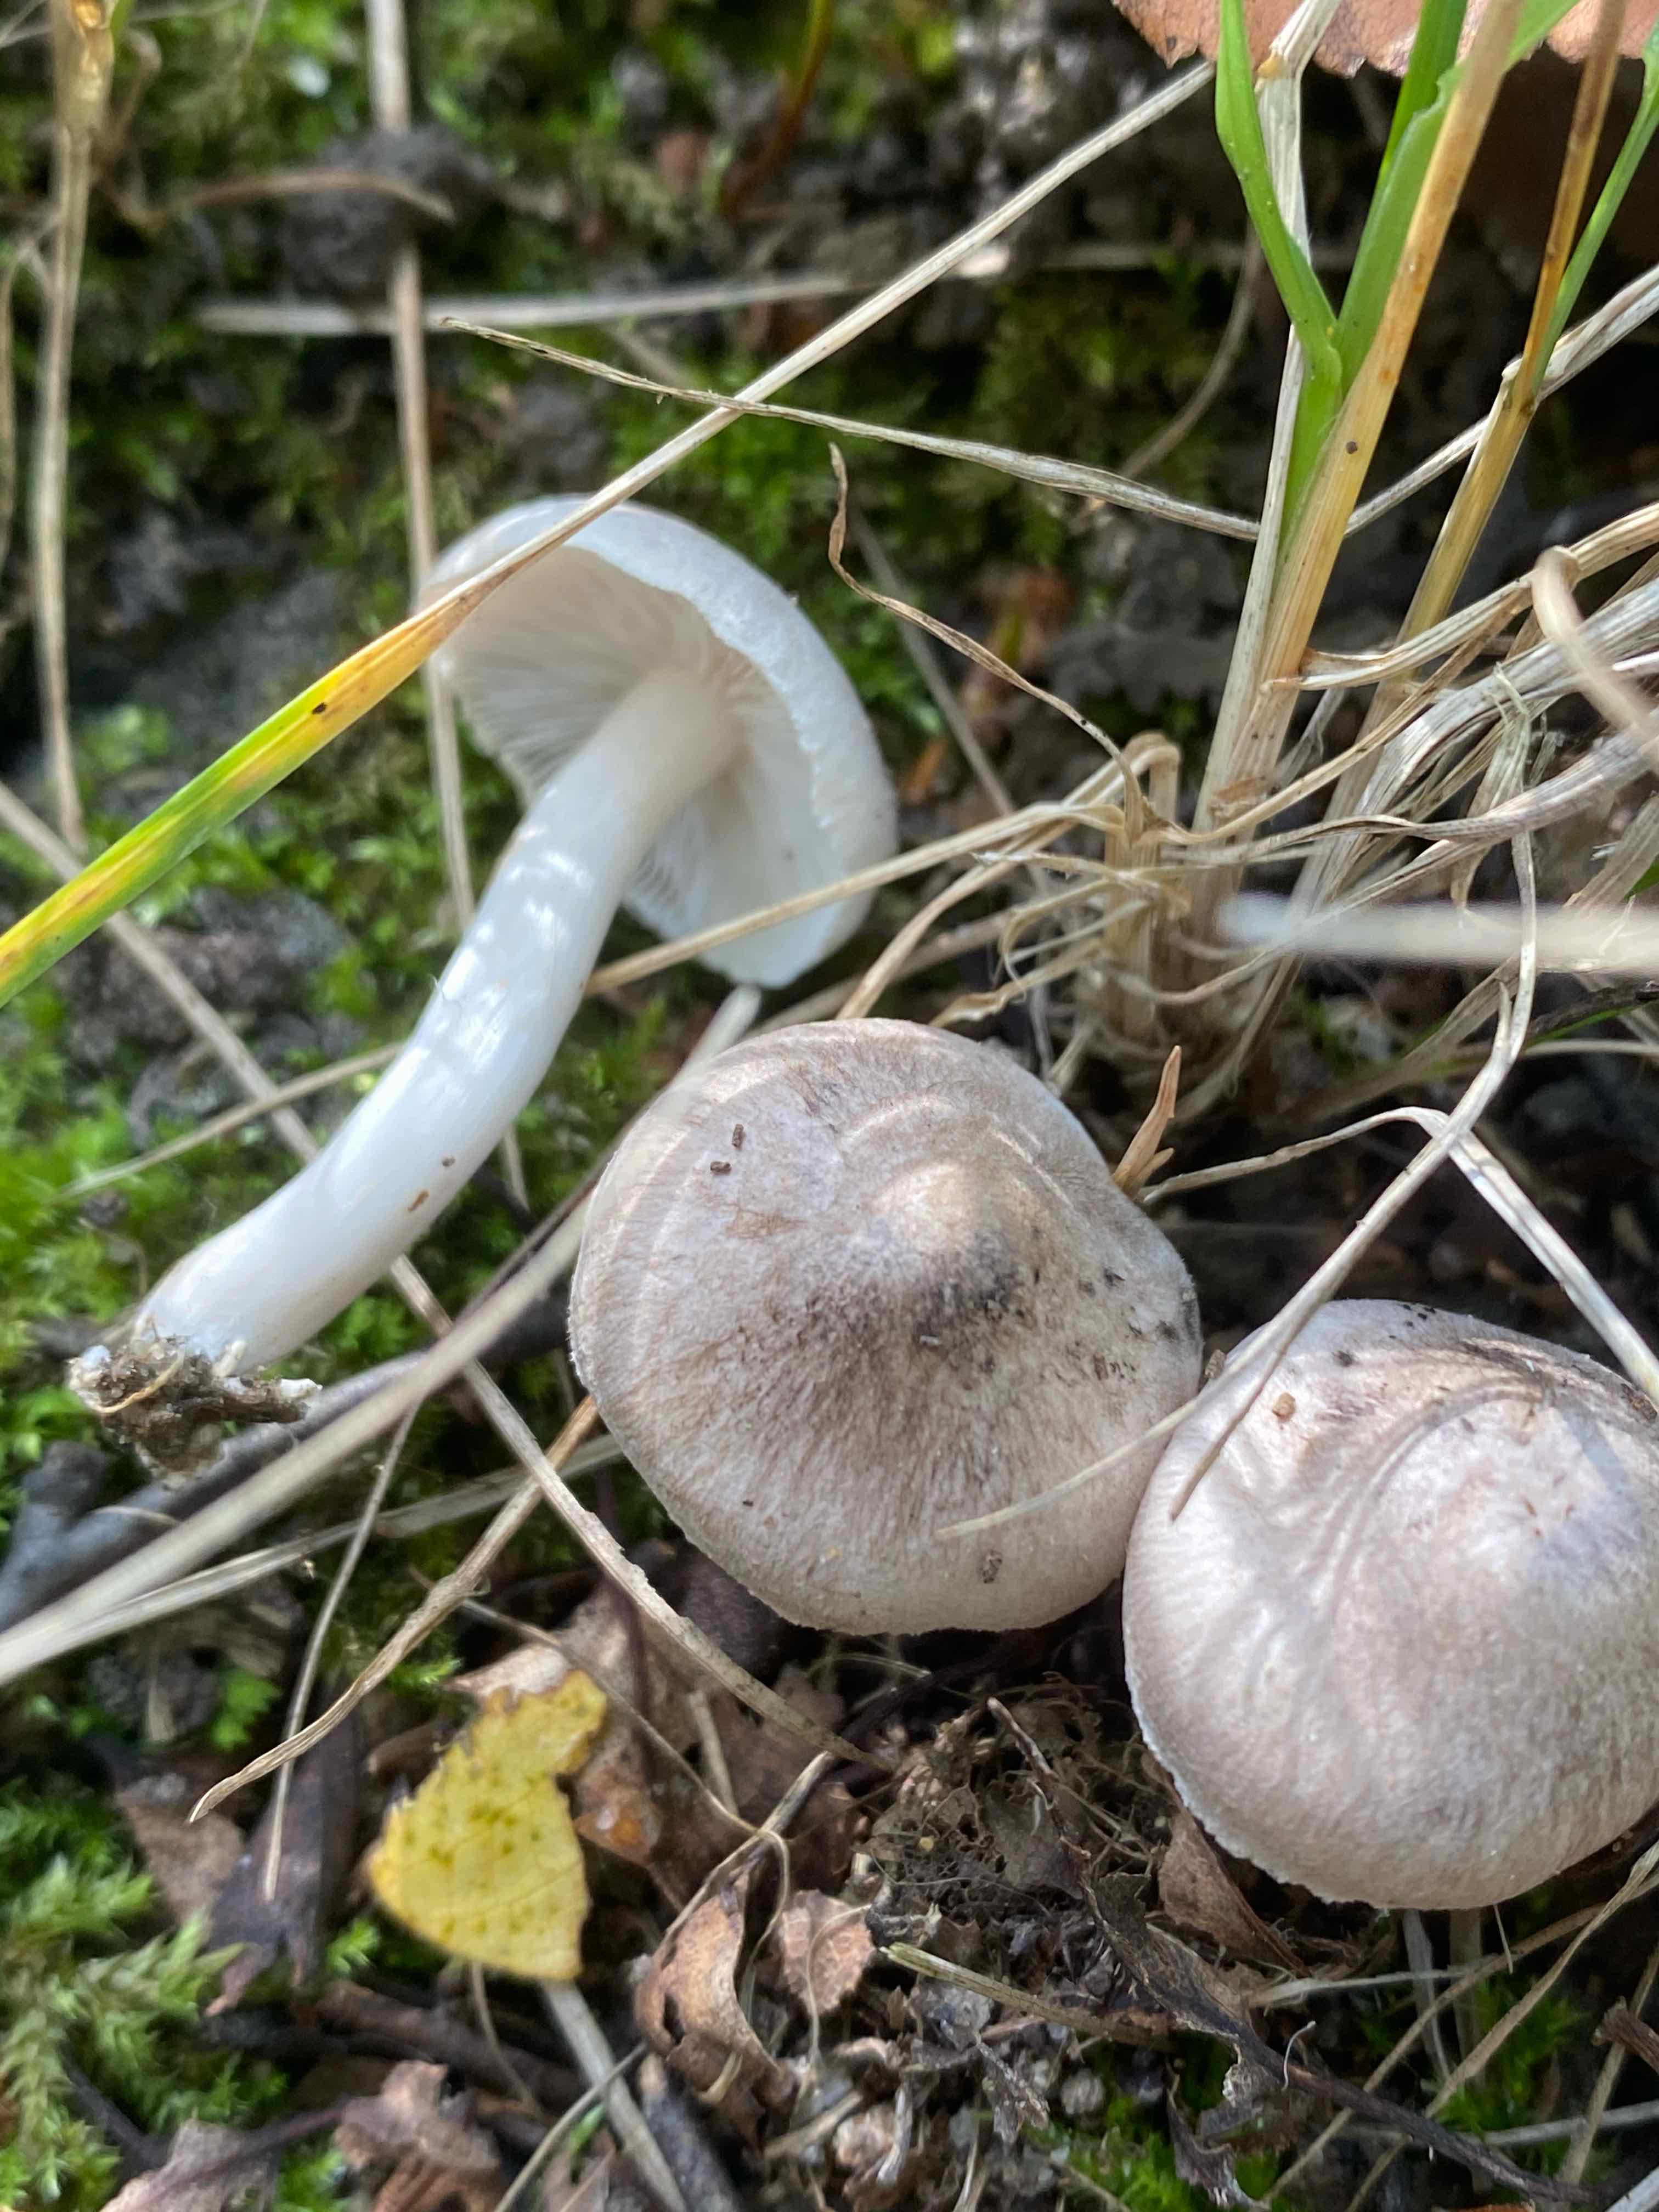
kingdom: Fungi
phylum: Basidiomycota
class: Agaricomycetes
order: Agaricales
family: Tricholomataceae
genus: Tricholoma
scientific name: Tricholoma
